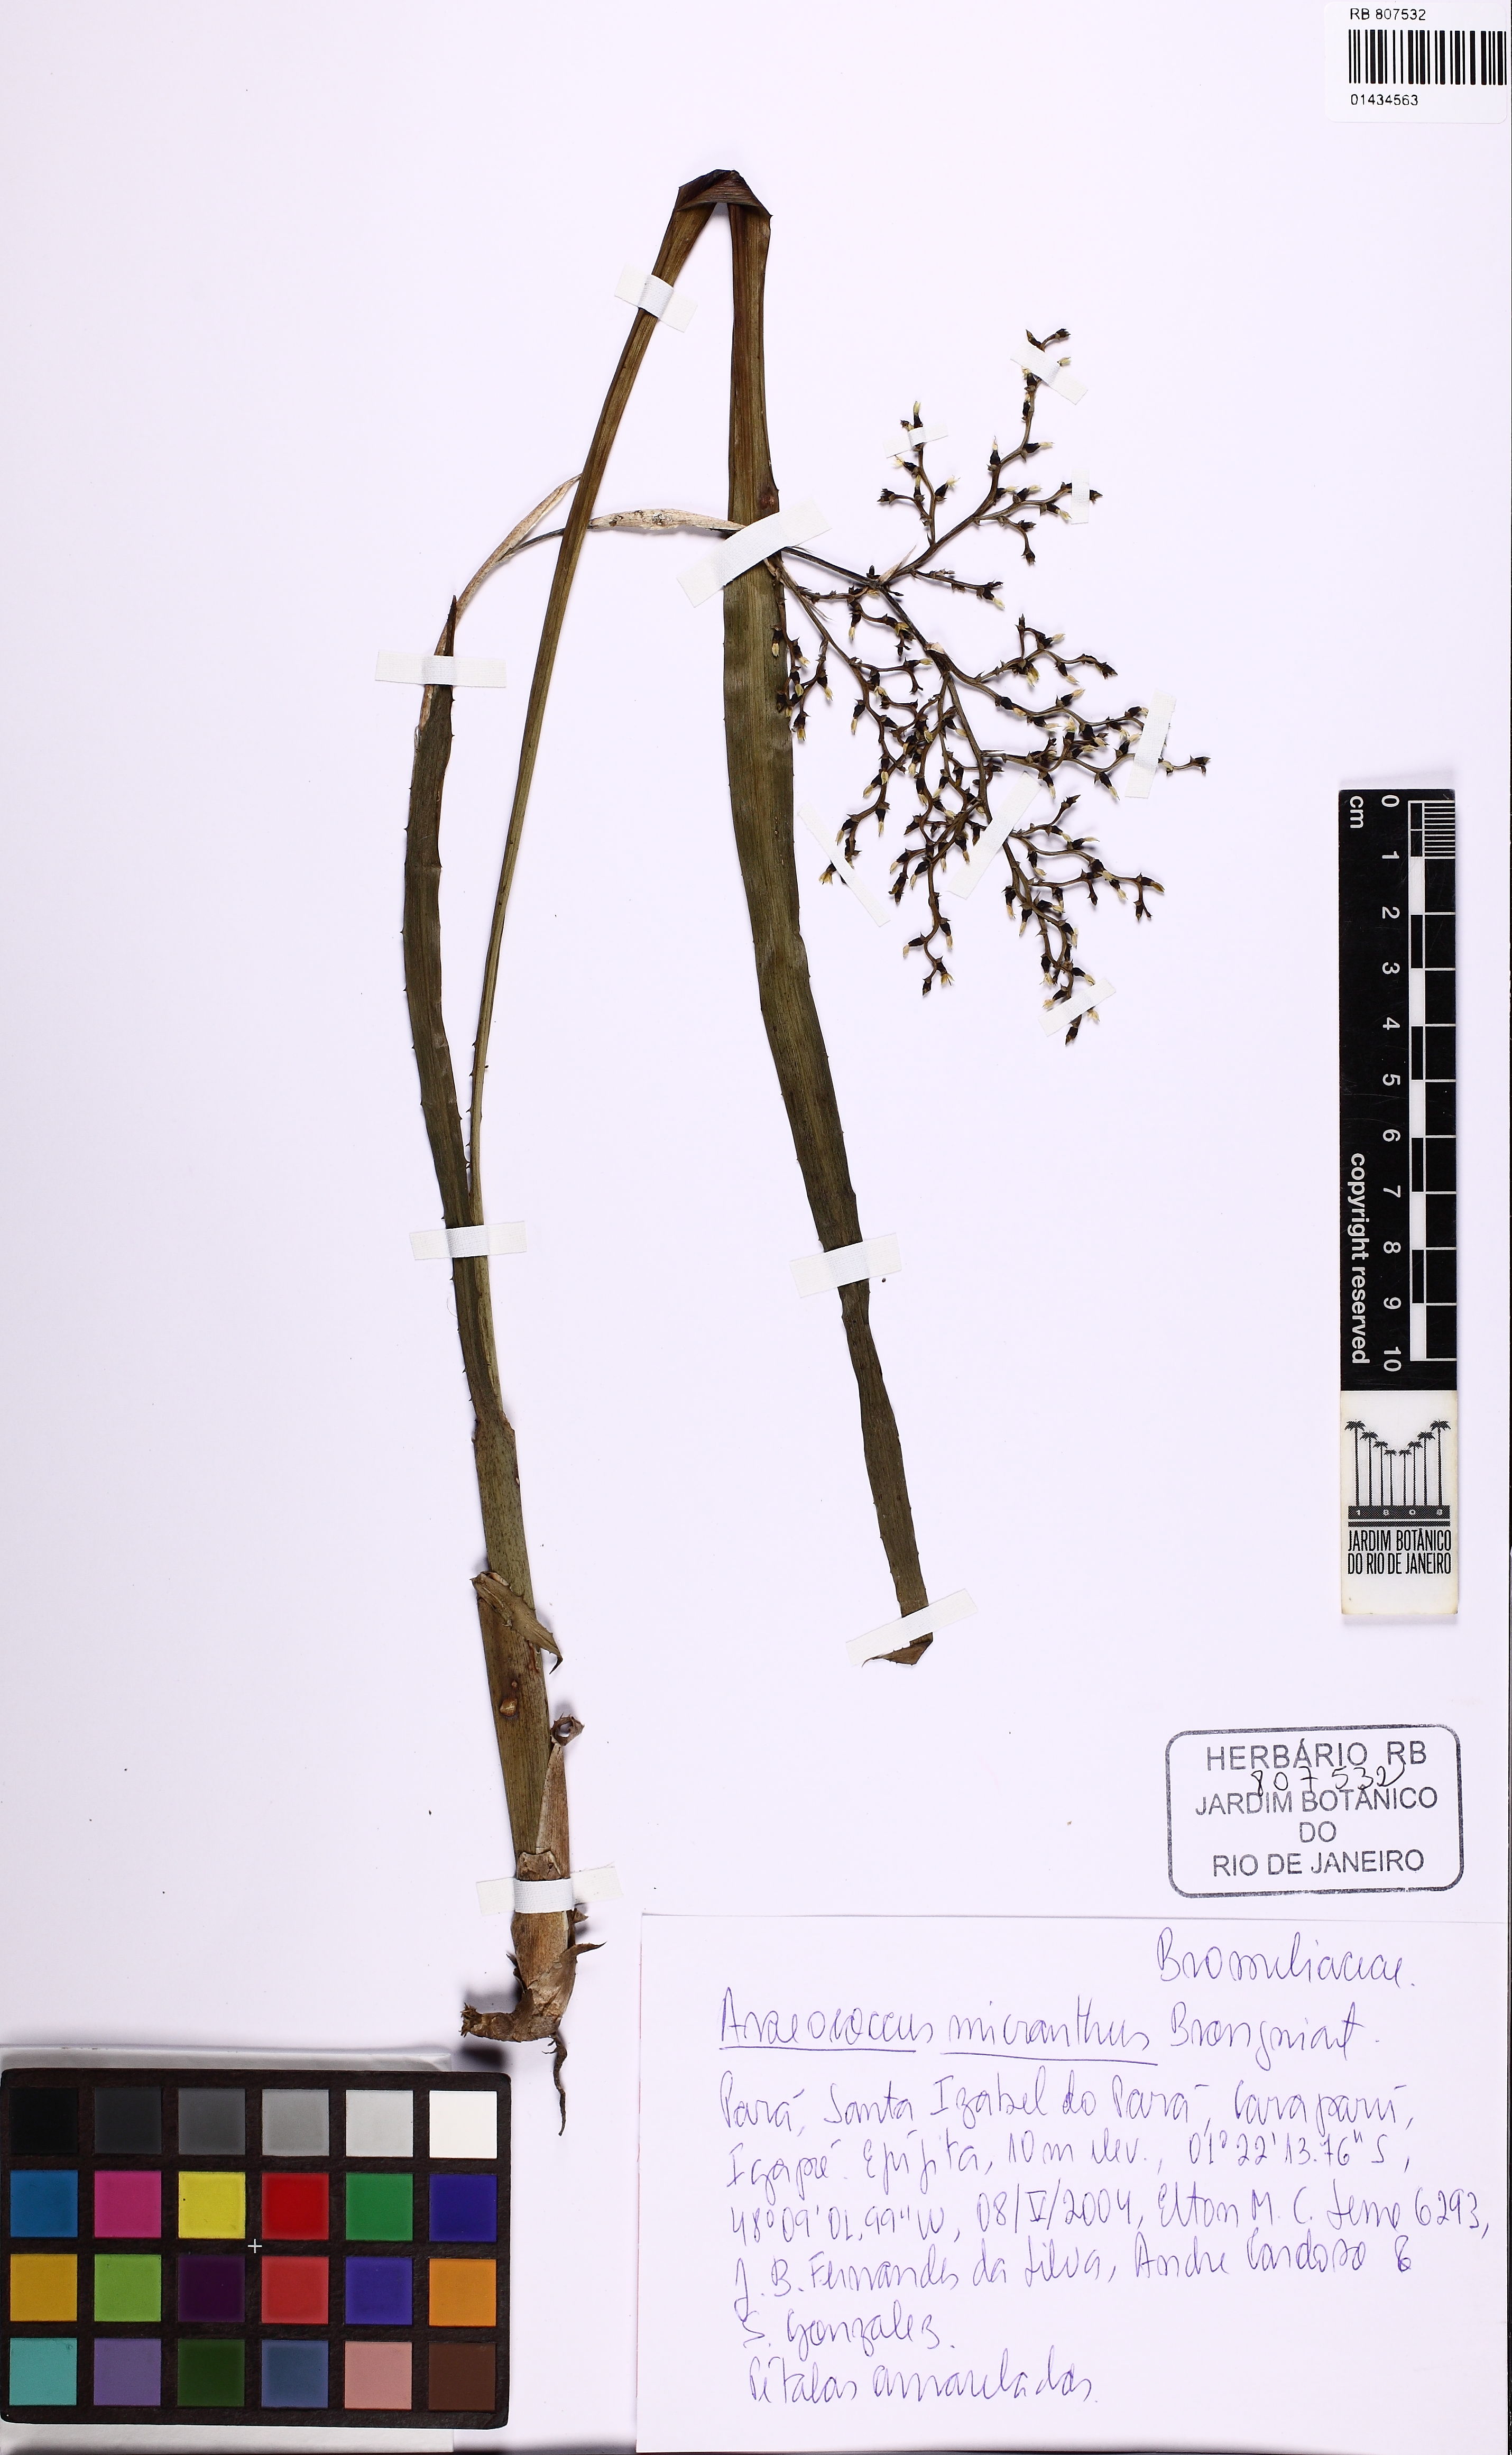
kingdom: Plantae
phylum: Tracheophyta
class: Liliopsida
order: Poales
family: Bromeliaceae
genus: Araeococcus
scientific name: Araeococcus micranthus
